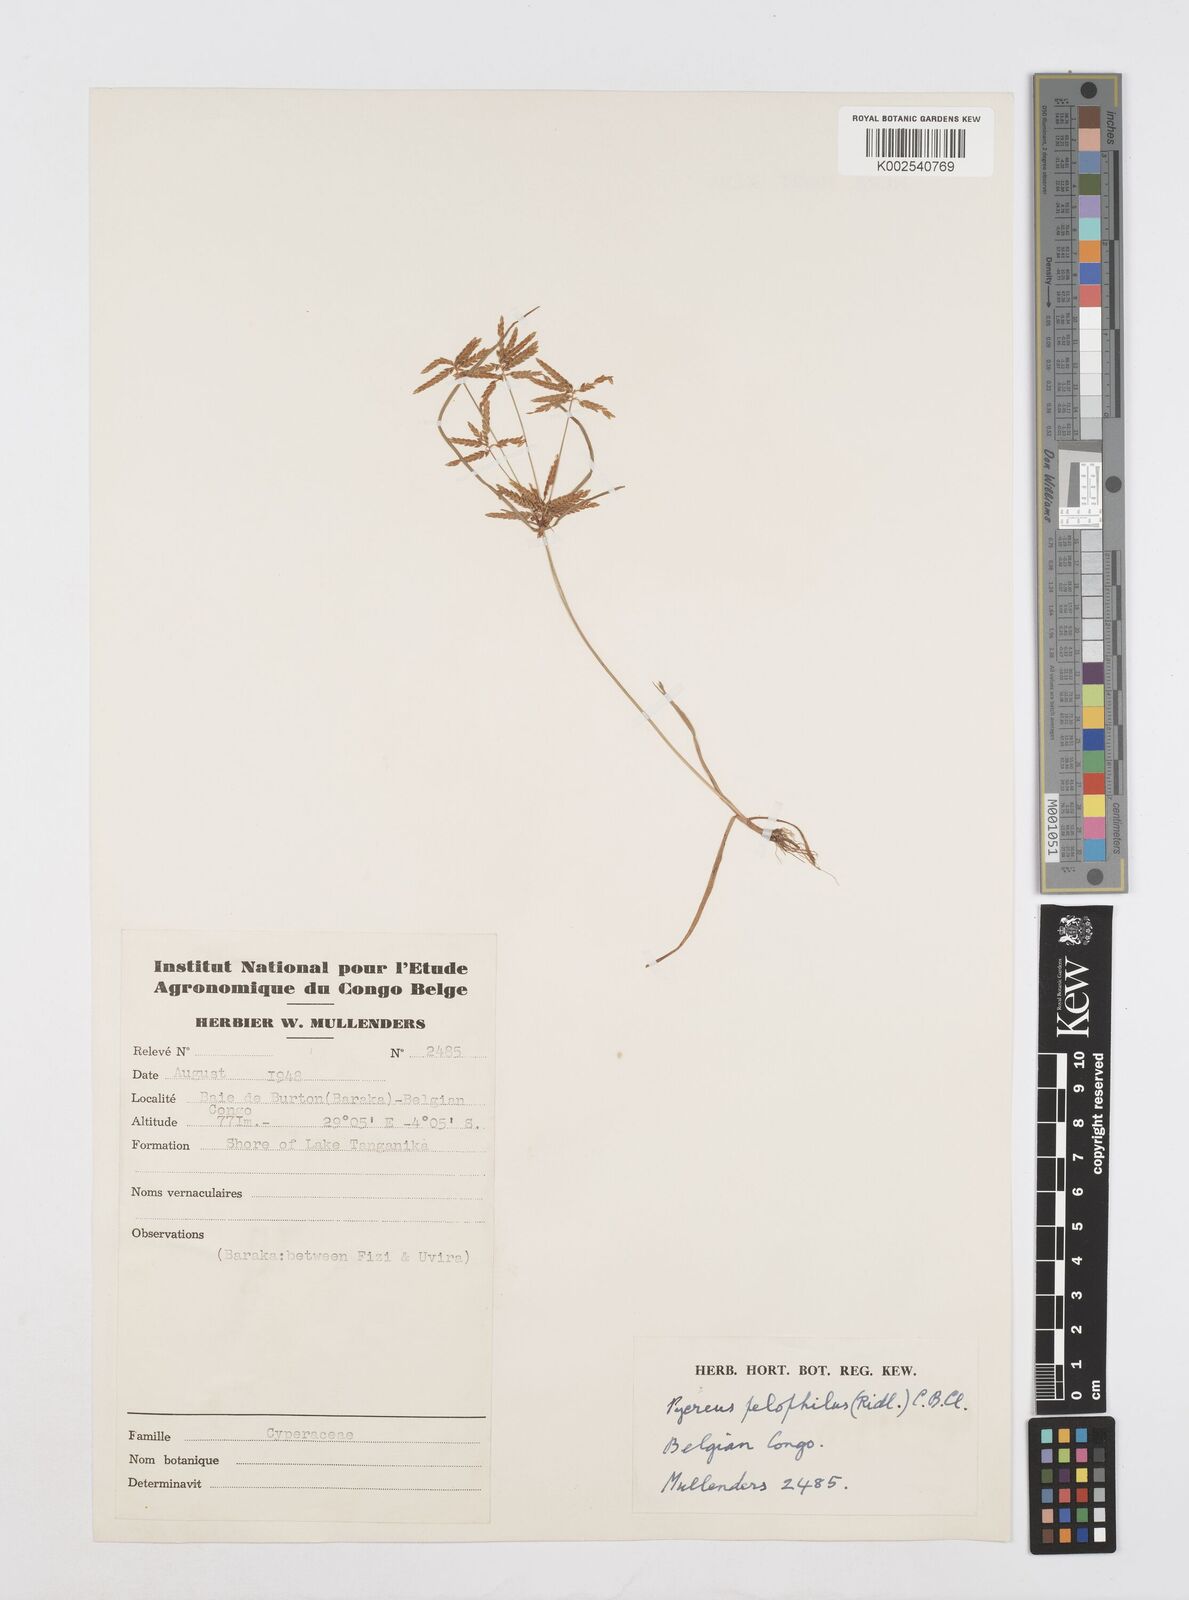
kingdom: Plantae
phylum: Tracheophyta
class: Liliopsida
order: Poales
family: Cyperaceae
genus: Cyperus
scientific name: Cyperus pelophilus
